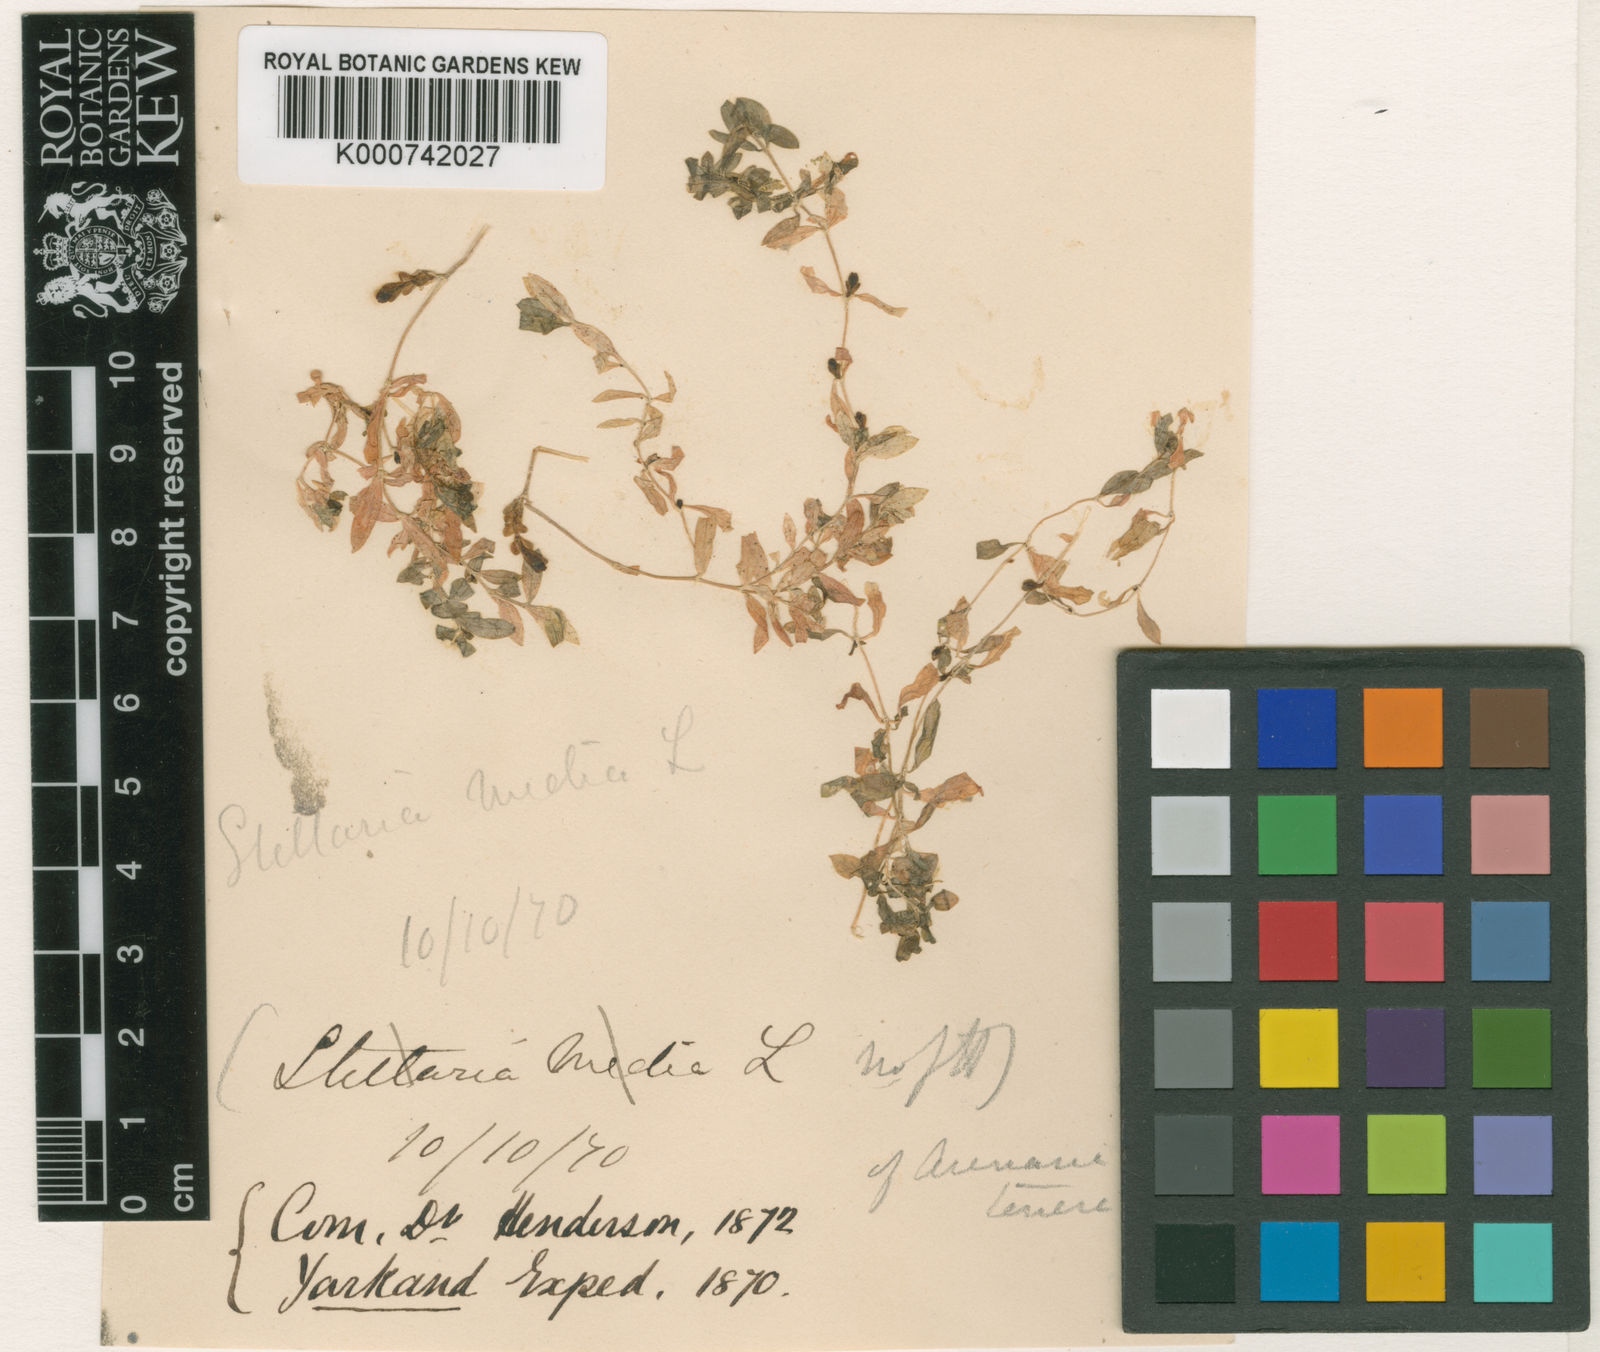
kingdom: Plantae
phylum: Tracheophyta
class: Magnoliopsida
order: Caryophyllales
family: Caryophyllaceae
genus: Lepyrodiclis
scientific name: Lepyrodiclis tenera
